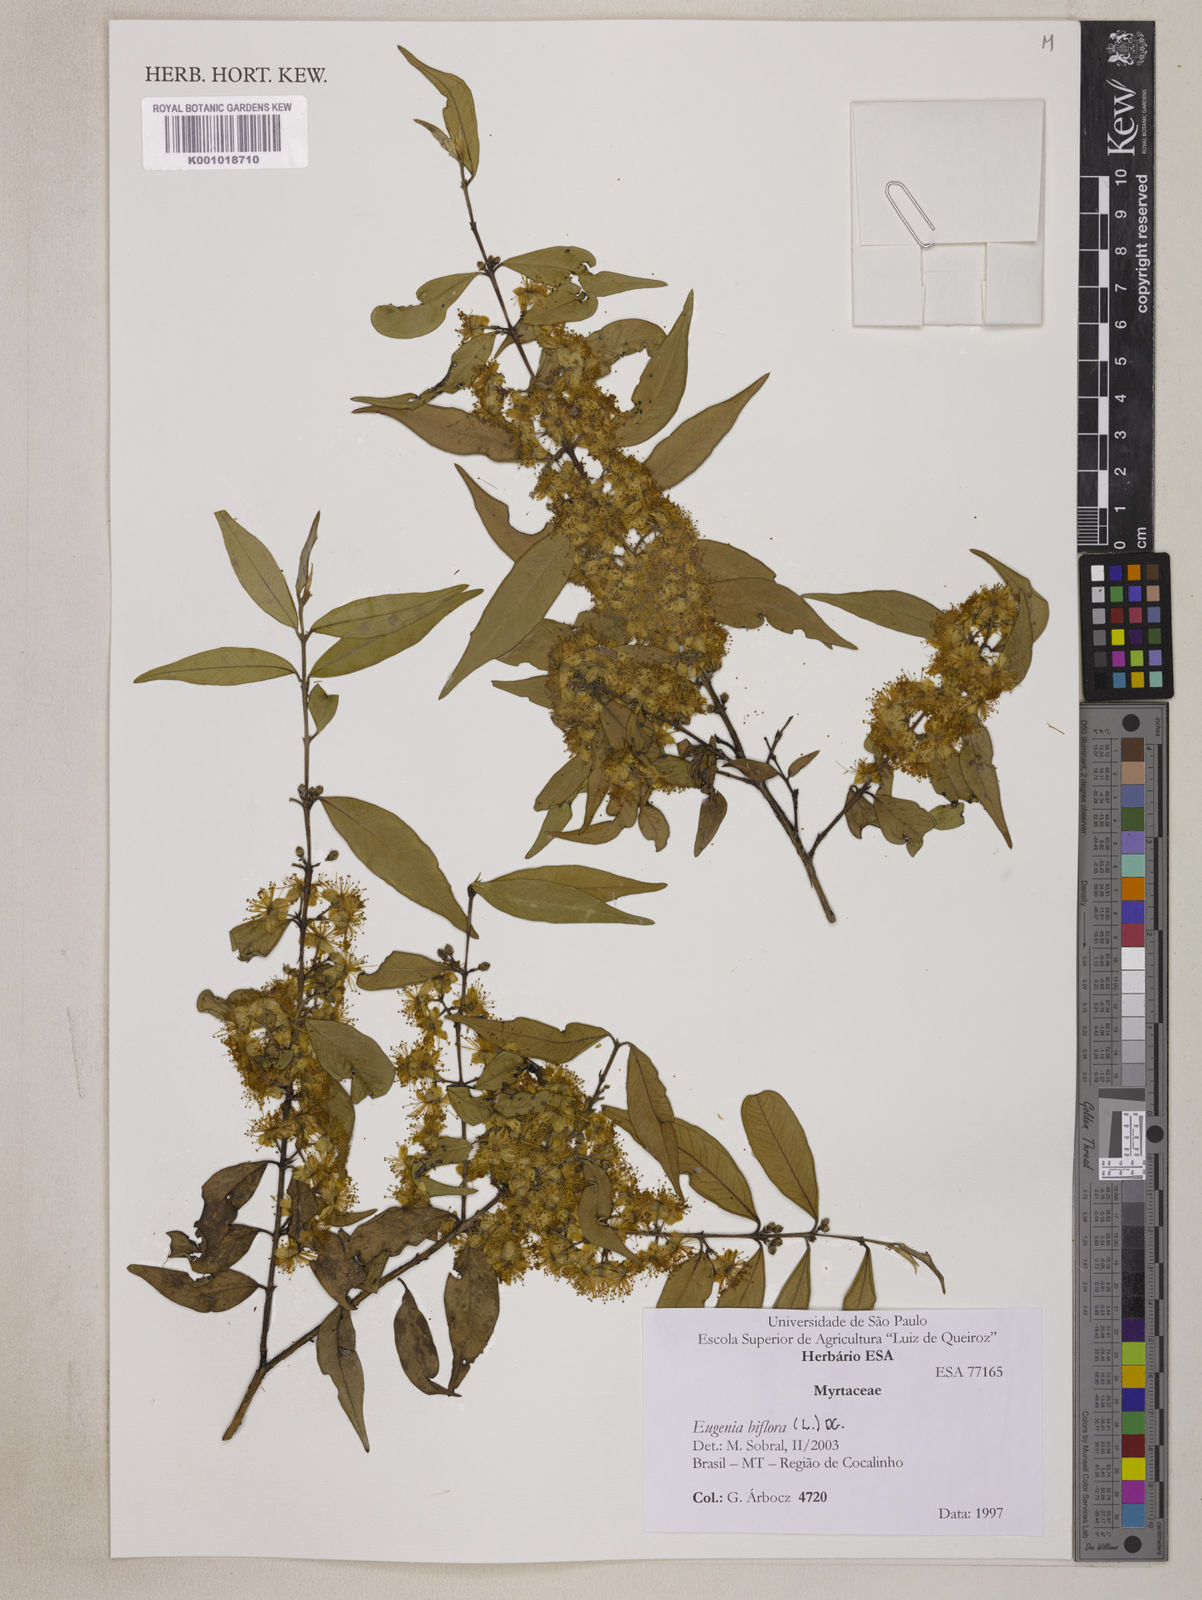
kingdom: Plantae
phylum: Tracheophyta
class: Magnoliopsida
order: Myrtales
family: Myrtaceae
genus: Eugenia
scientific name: Eugenia biflora
